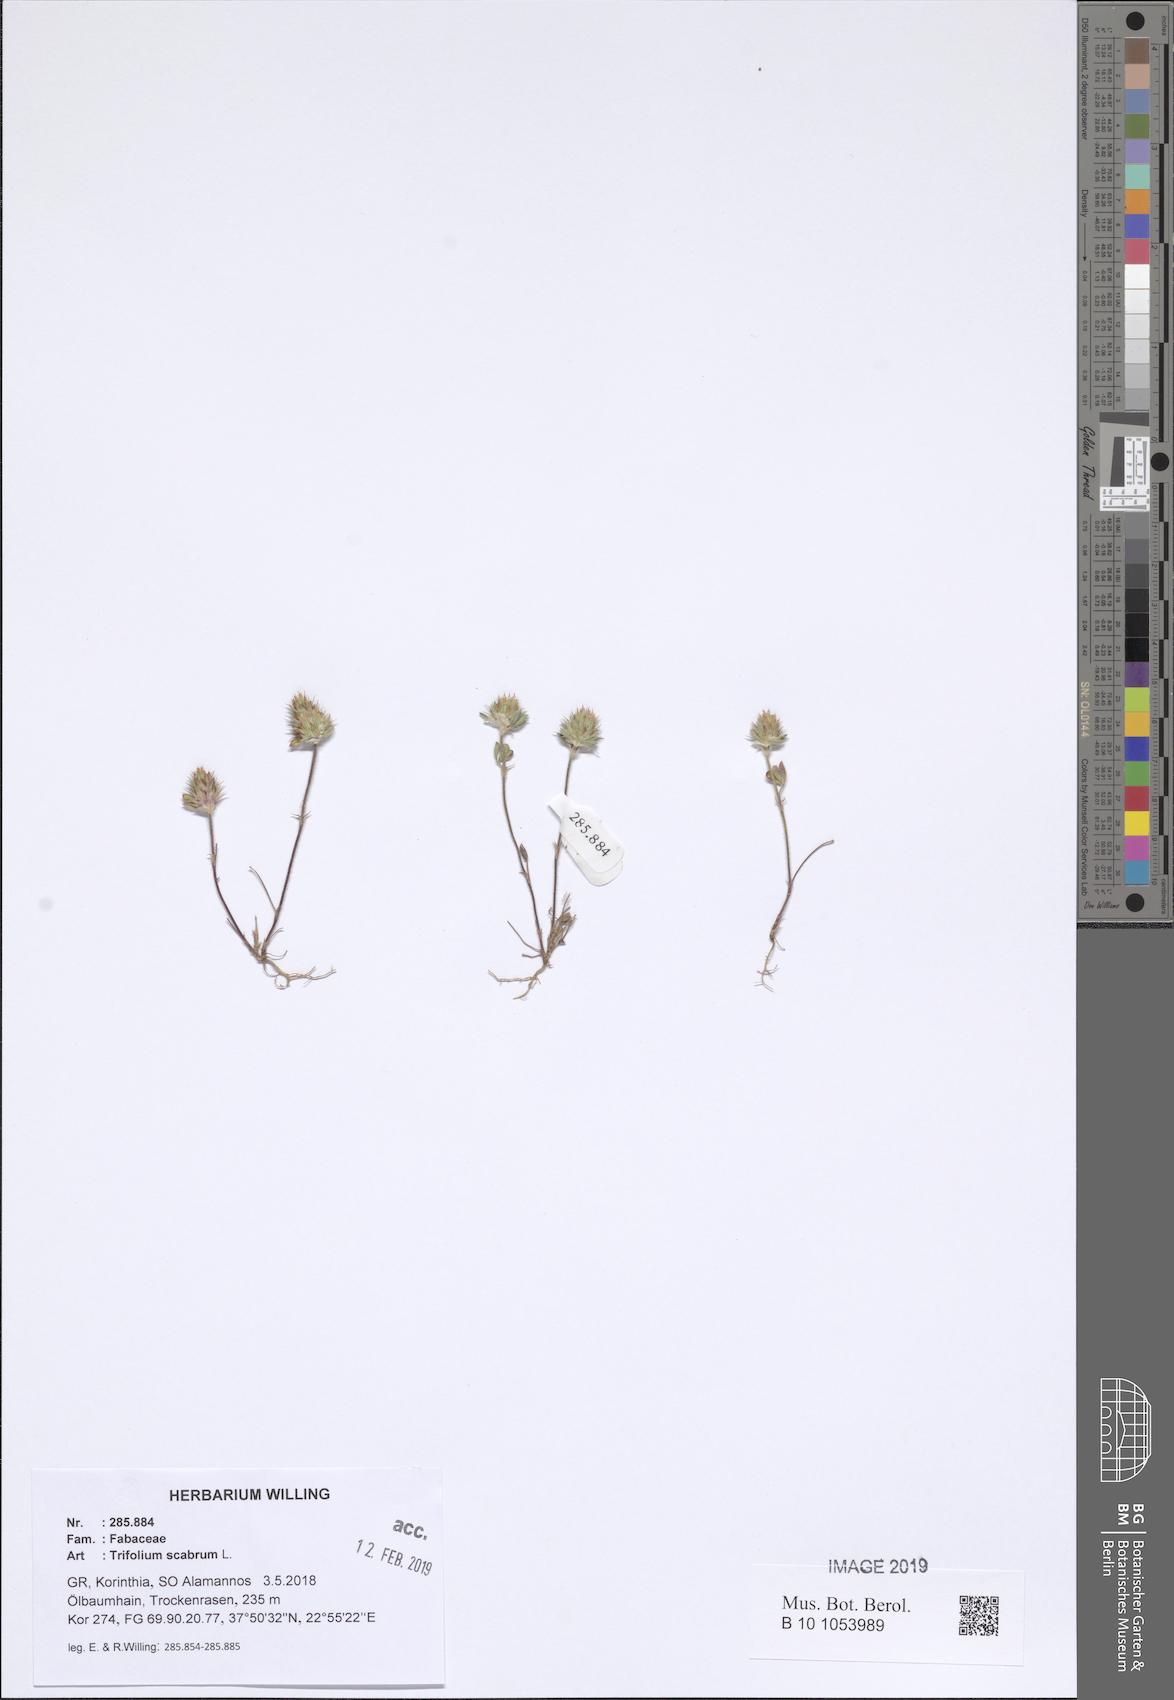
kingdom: Plantae
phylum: Tracheophyta
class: Magnoliopsida
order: Fabales
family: Fabaceae
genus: Trifolium
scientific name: Trifolium scabrum
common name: Rough clover
